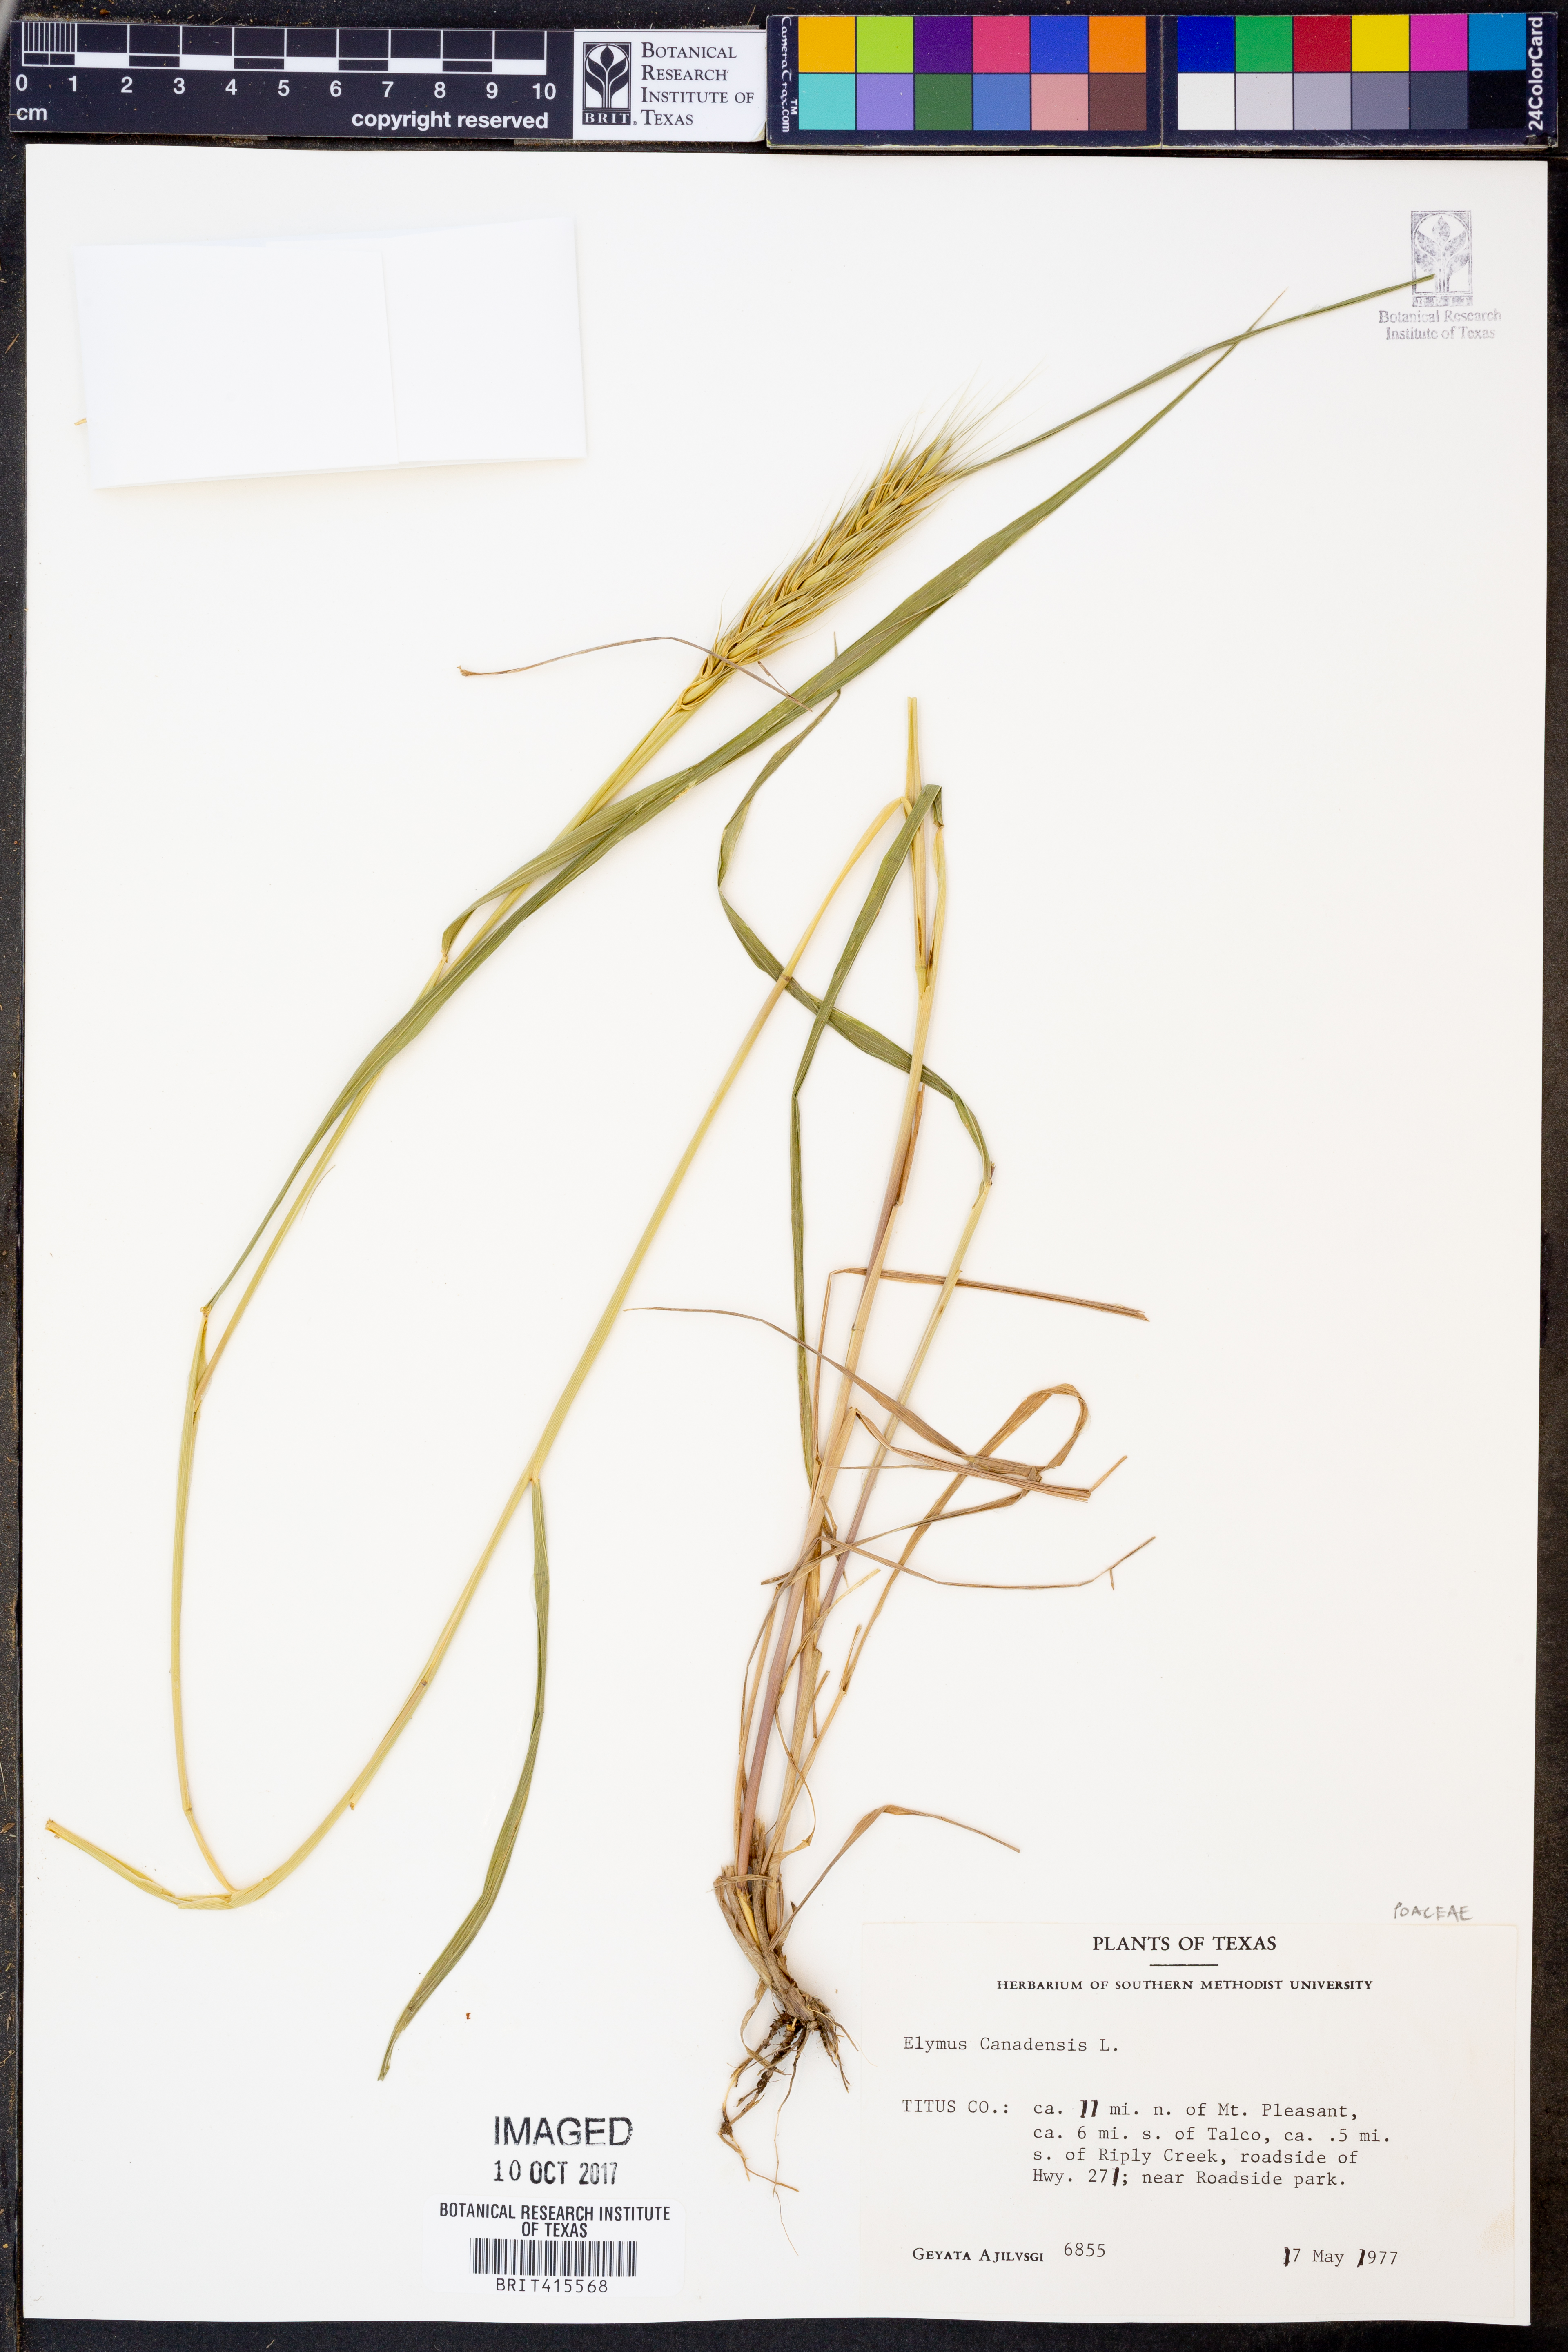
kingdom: Plantae
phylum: Tracheophyta
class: Liliopsida
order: Poales
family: Poaceae
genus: Elymus
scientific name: Elymus canadensis
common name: Canada wild rye
